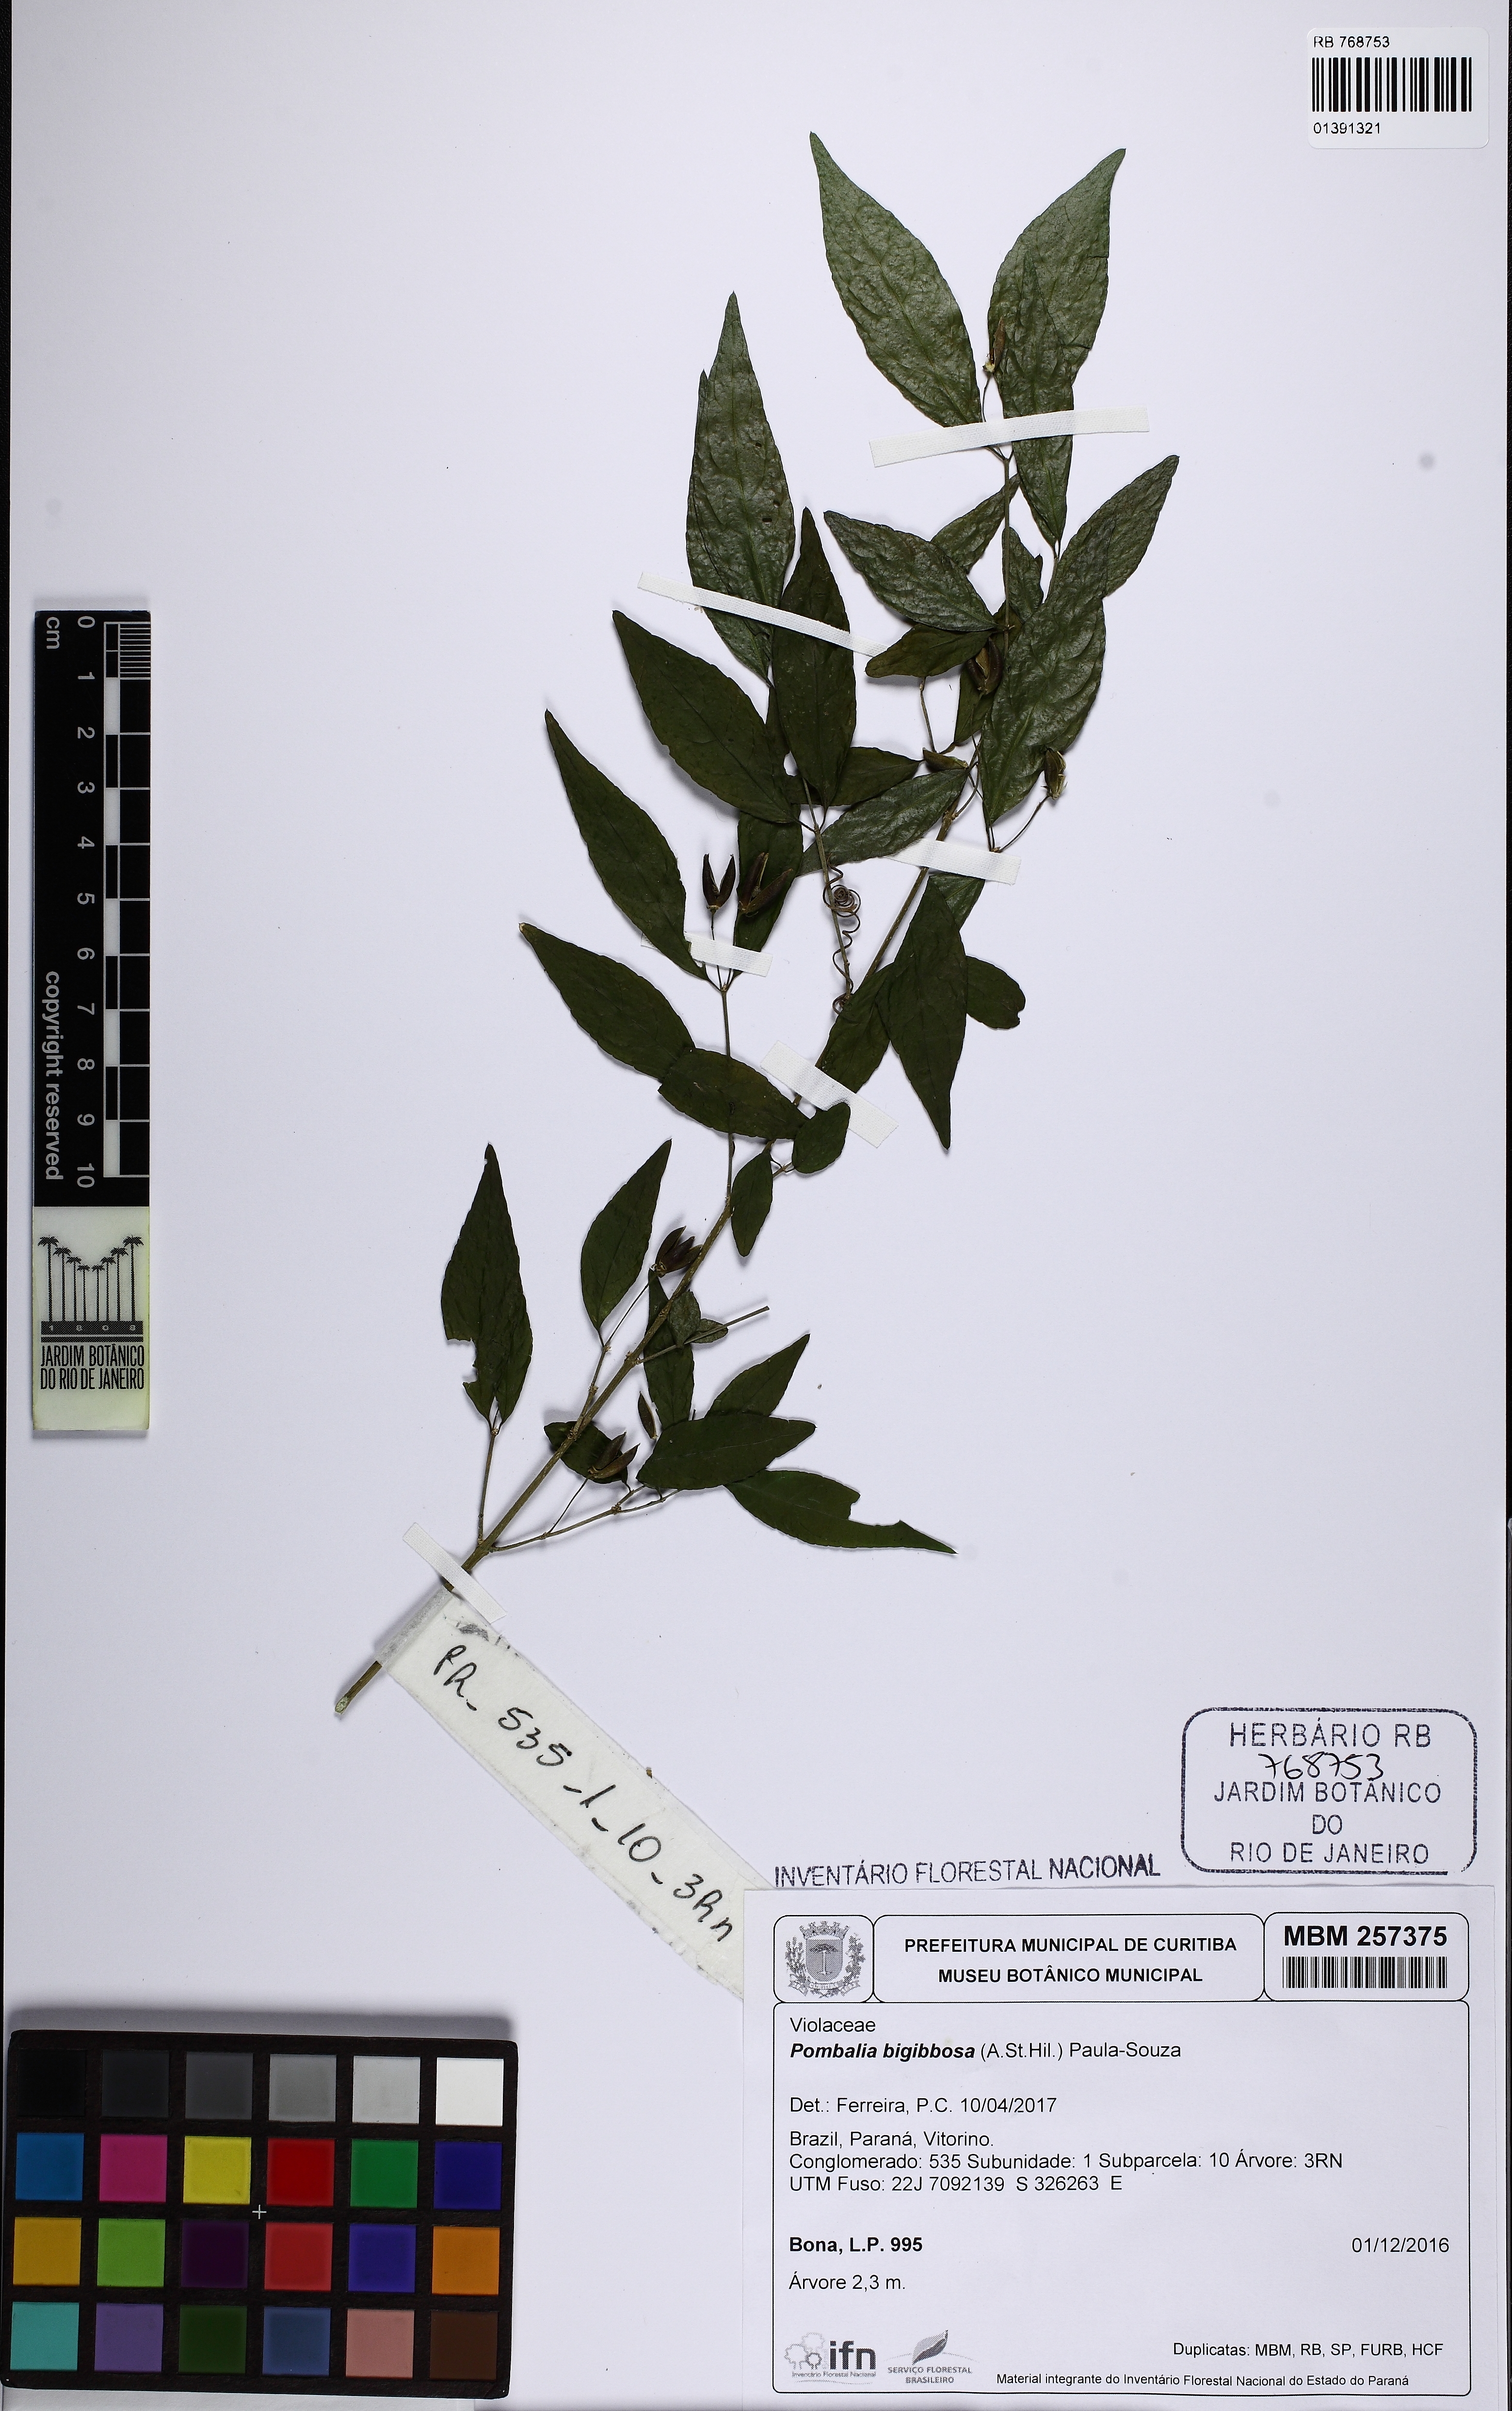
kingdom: Plantae
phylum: Tracheophyta
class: Magnoliopsida
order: Malpighiales
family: Violaceae
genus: Pombalia
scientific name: Pombalia bigibbosa
